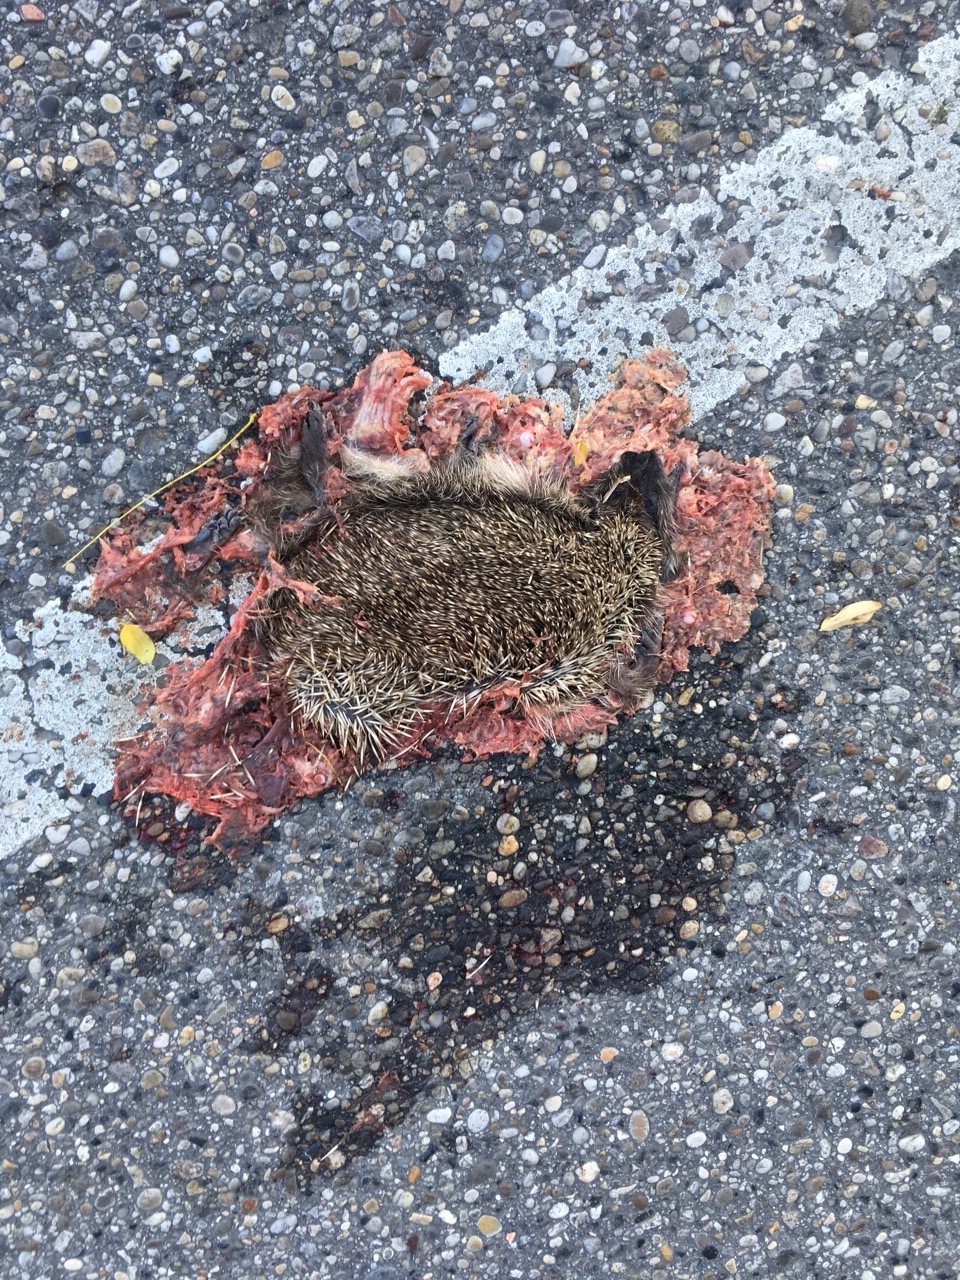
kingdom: Animalia
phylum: Chordata
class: Mammalia
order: Erinaceomorpha
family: Erinaceidae
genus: Erinaceus
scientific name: Erinaceus
